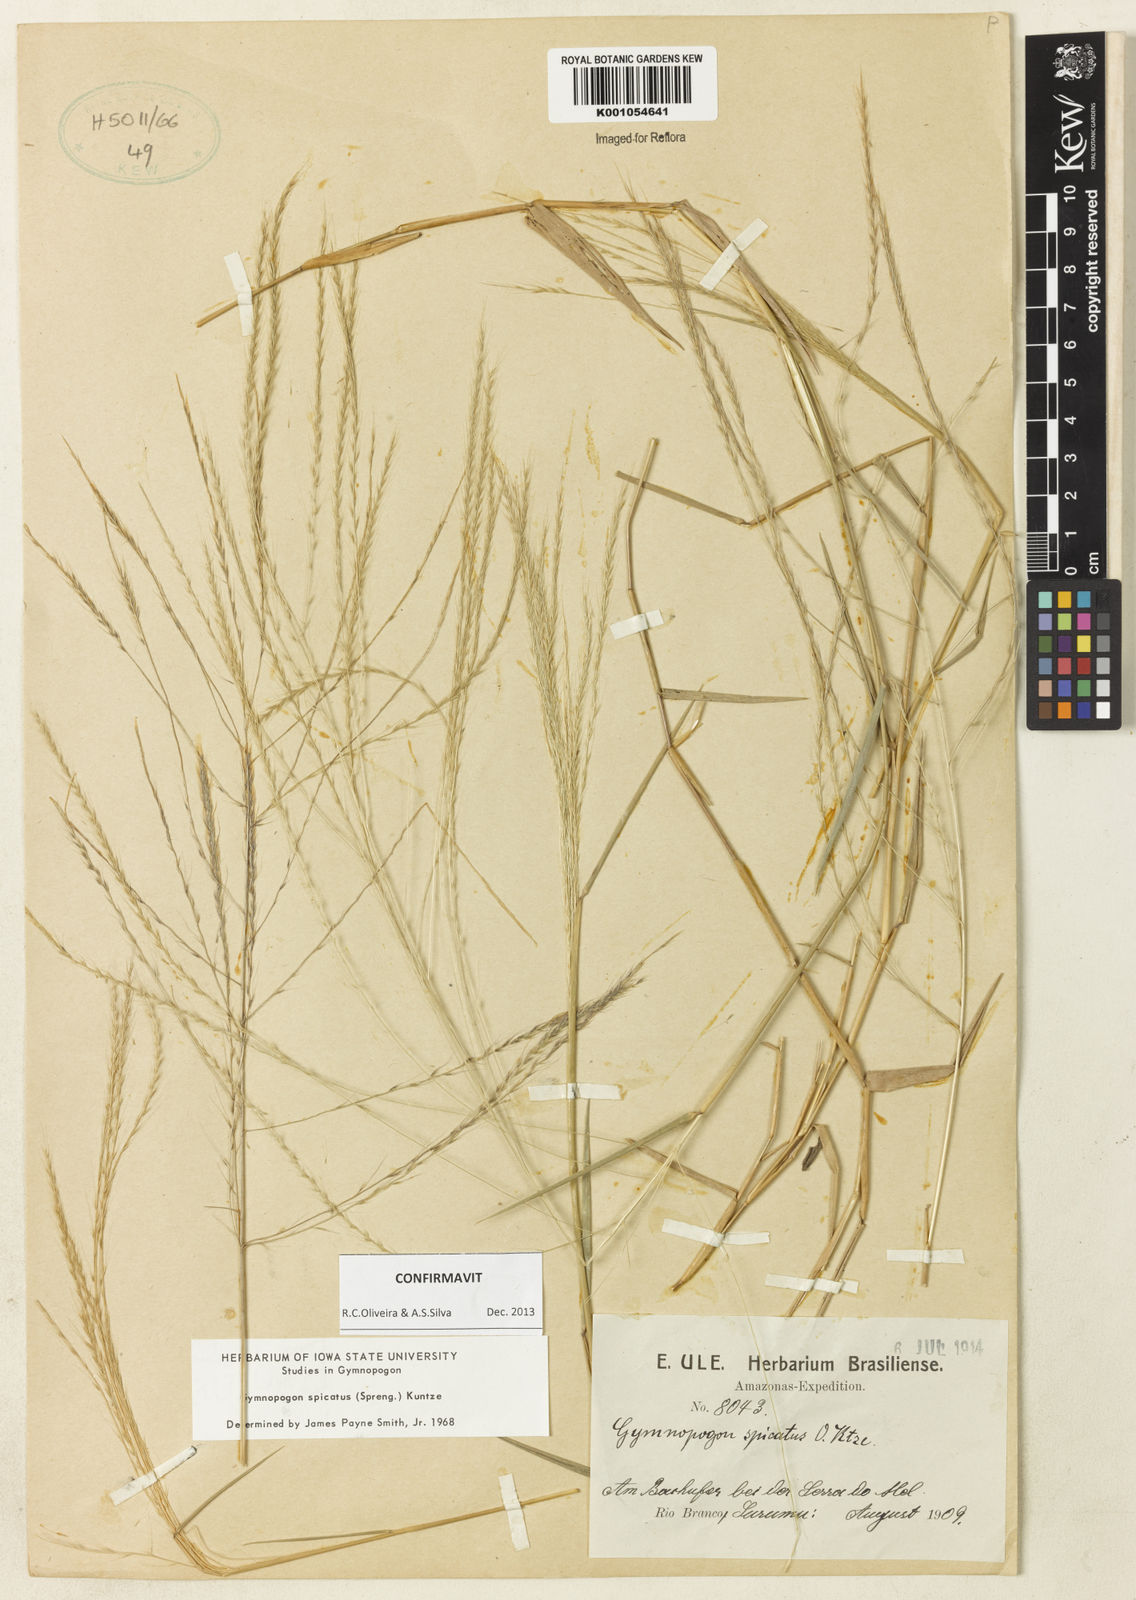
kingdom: Plantae
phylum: Tracheophyta
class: Liliopsida
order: Poales
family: Poaceae
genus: Gymnopogon
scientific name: Gymnopogon spicatus
